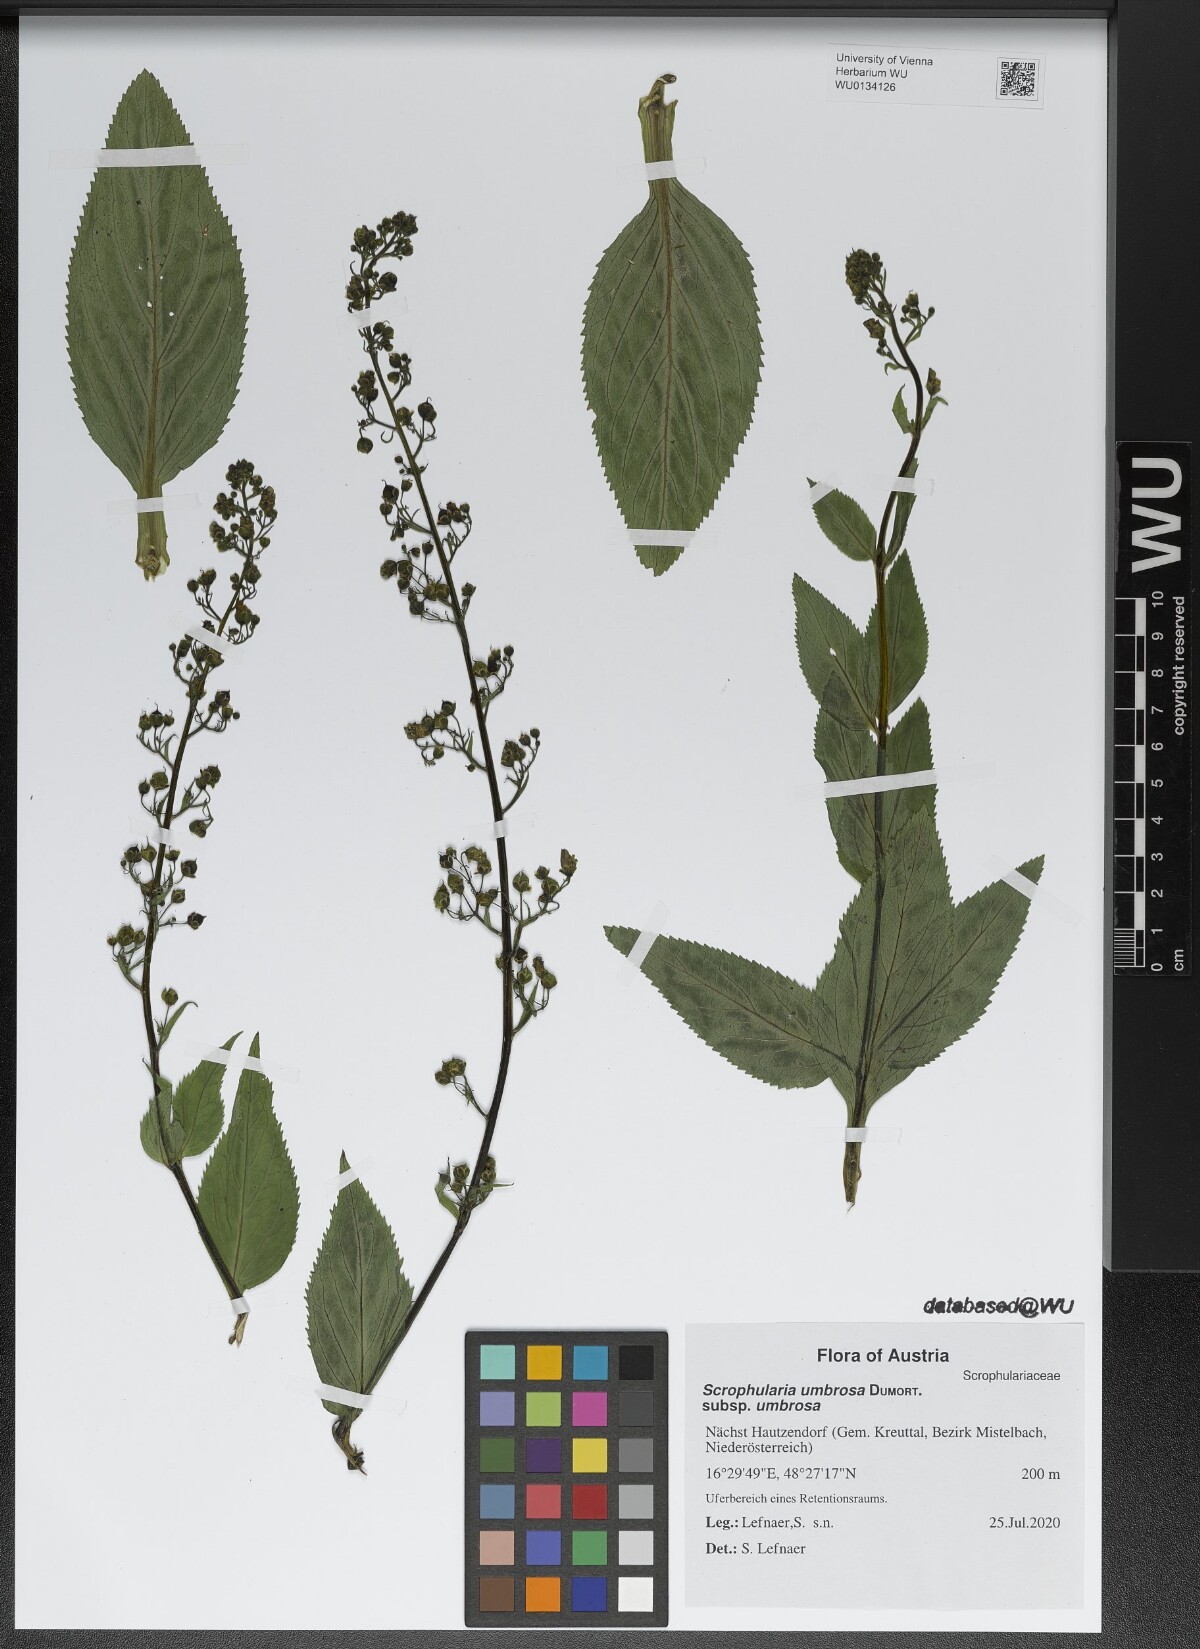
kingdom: Plantae
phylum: Tracheophyta
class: Magnoliopsida
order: Lamiales
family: Scrophulariaceae
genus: Scrophularia
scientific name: Scrophularia umbrosa
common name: Green figwort
